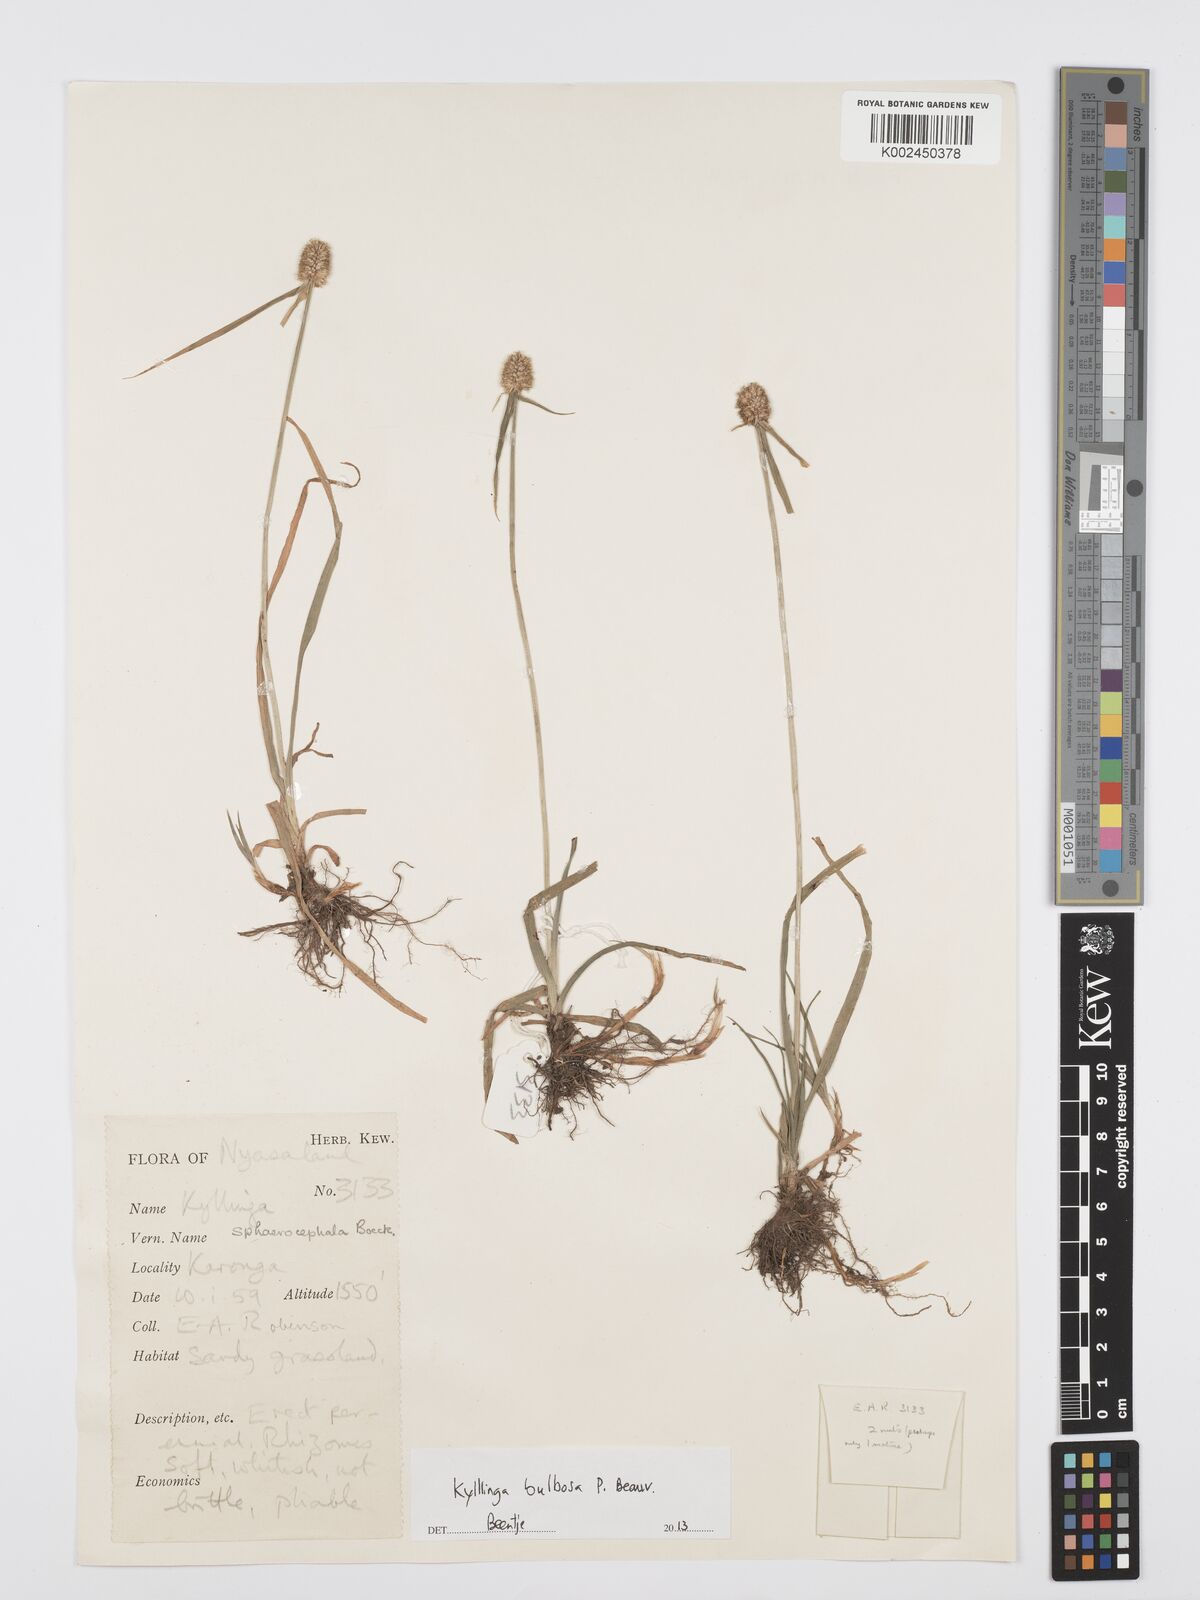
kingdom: Plantae
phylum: Tracheophyta
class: Liliopsida
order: Poales
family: Cyperaceae
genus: Cyperus
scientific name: Cyperus
